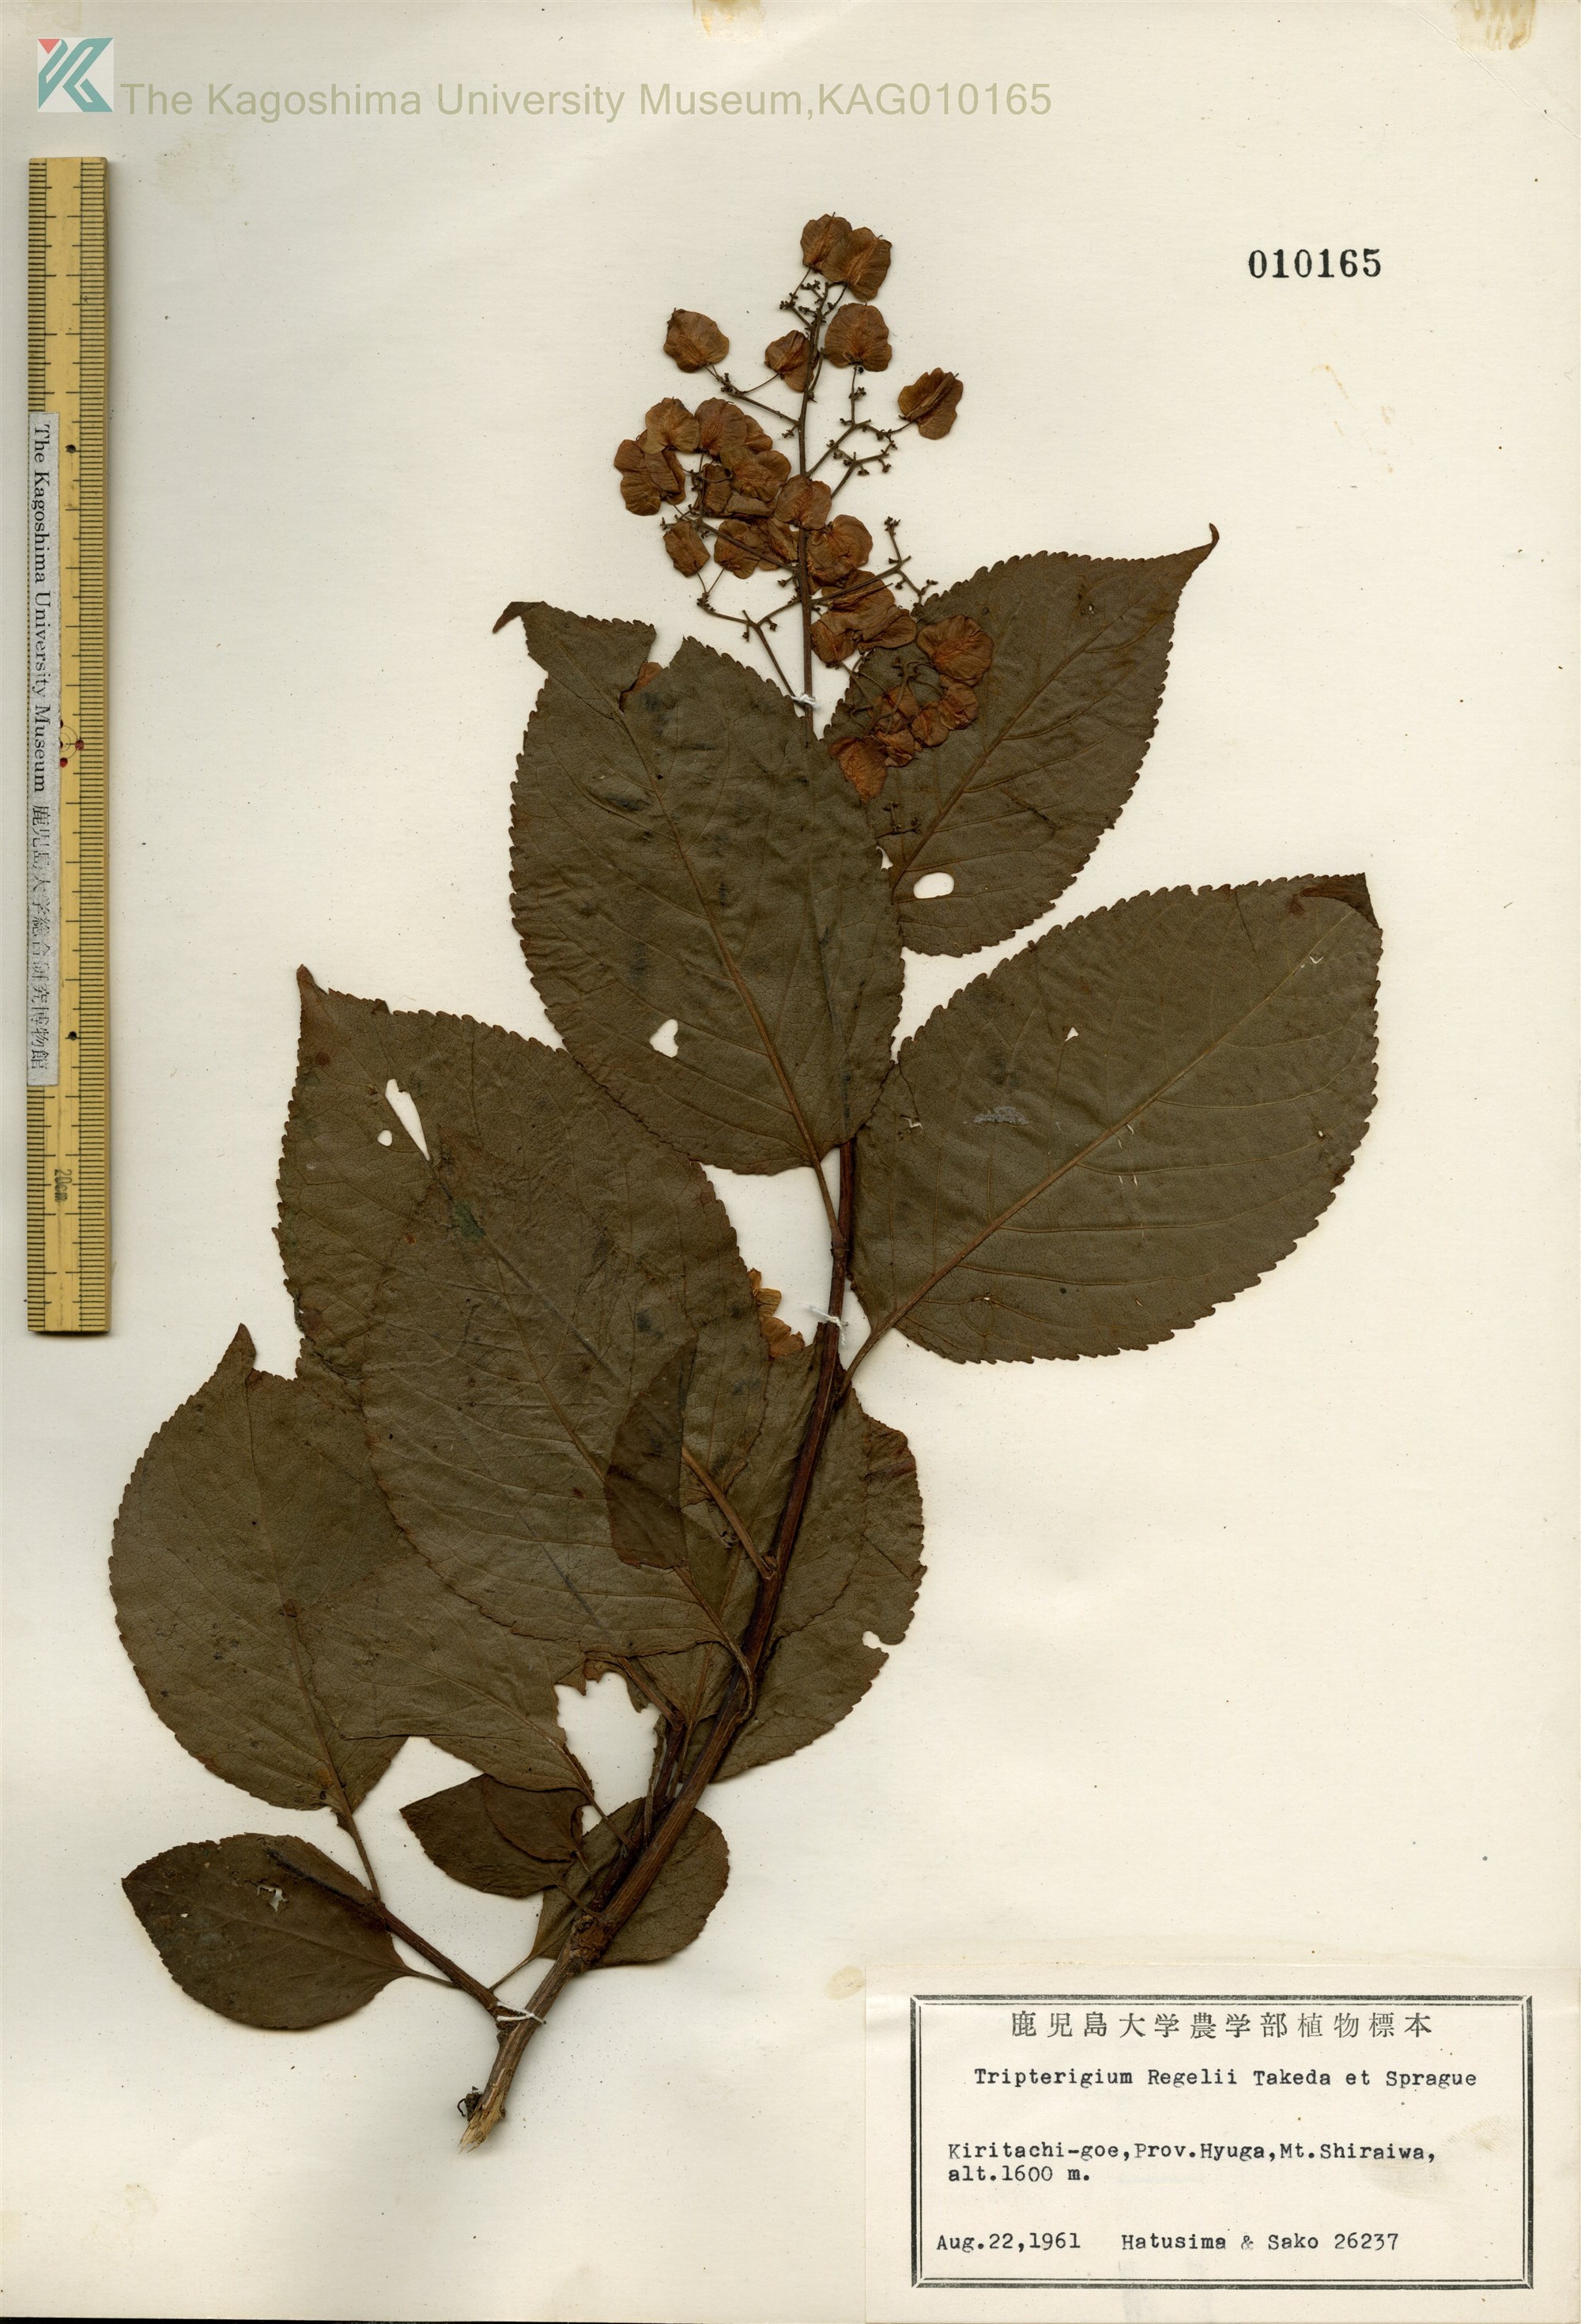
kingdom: Plantae
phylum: Tracheophyta
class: Magnoliopsida
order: Celastrales
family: Celastraceae
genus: Tripterygium
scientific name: Tripterygium wilfordii
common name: クロヅル
